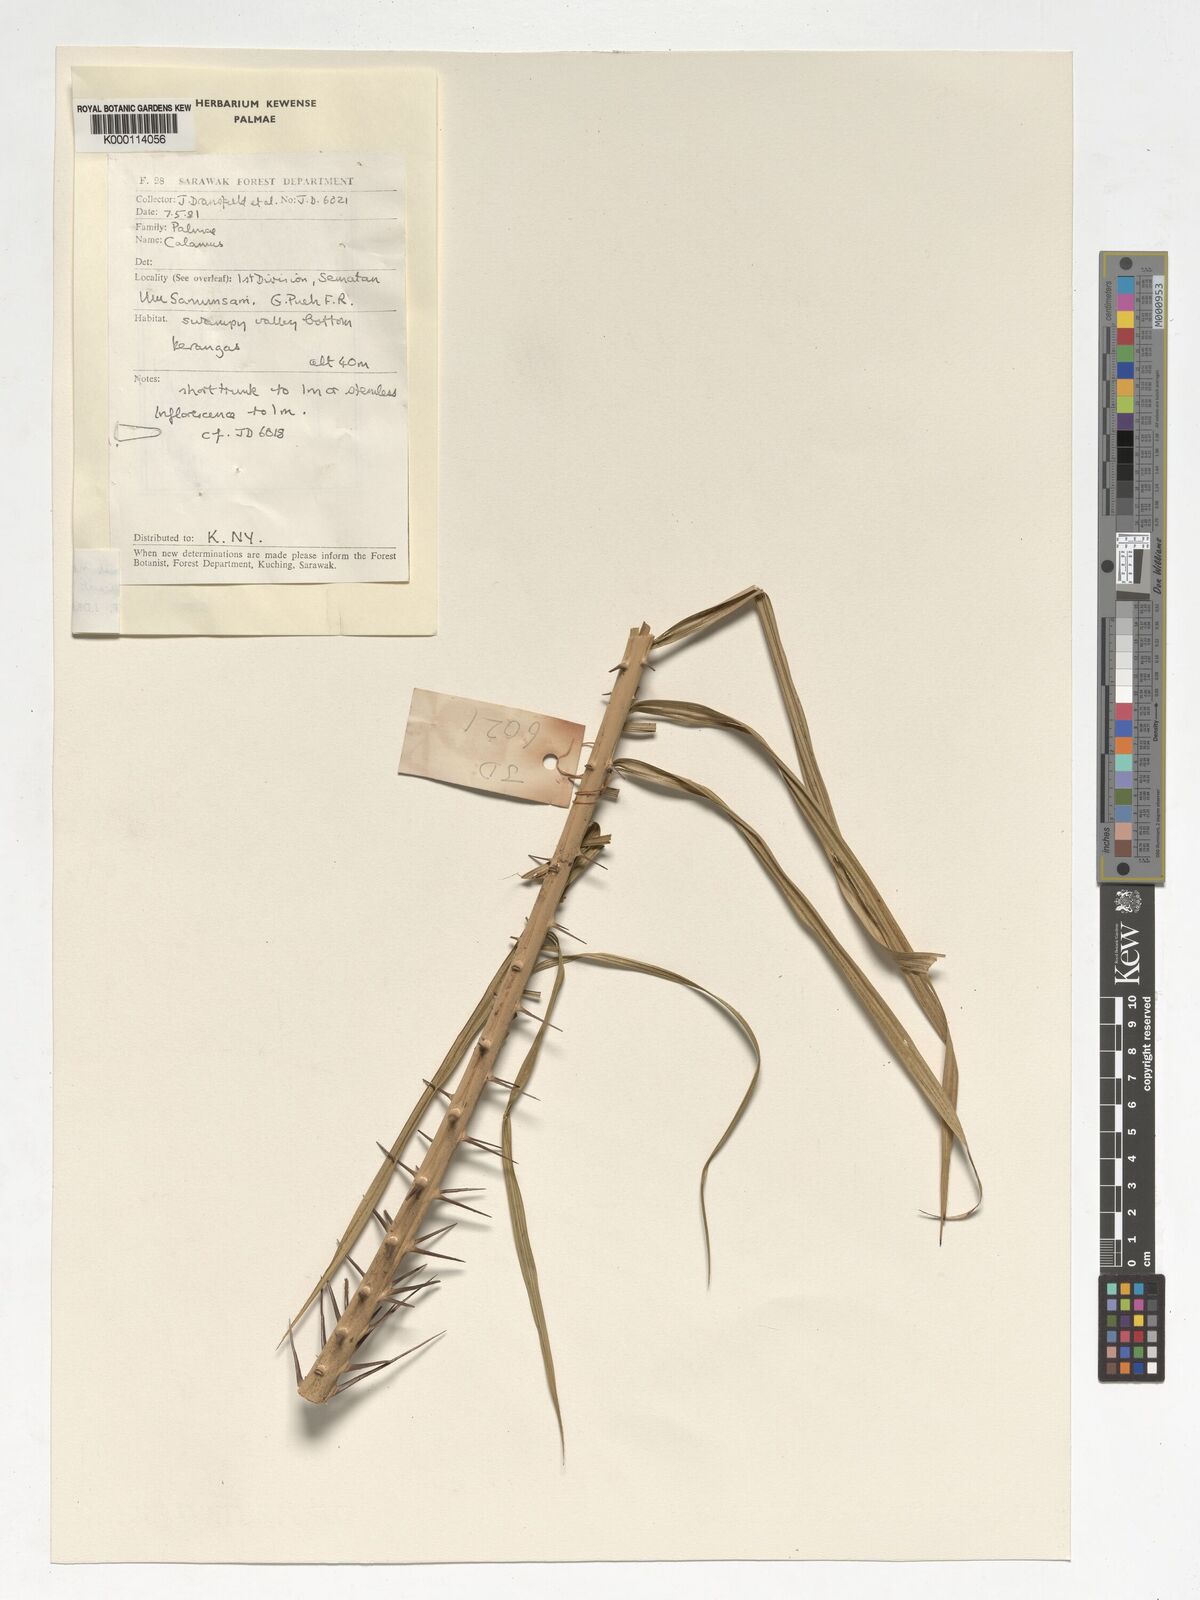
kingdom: Plantae
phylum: Tracheophyta
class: Liliopsida
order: Arecales
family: Arecaceae
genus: Calamus
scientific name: Calamus
